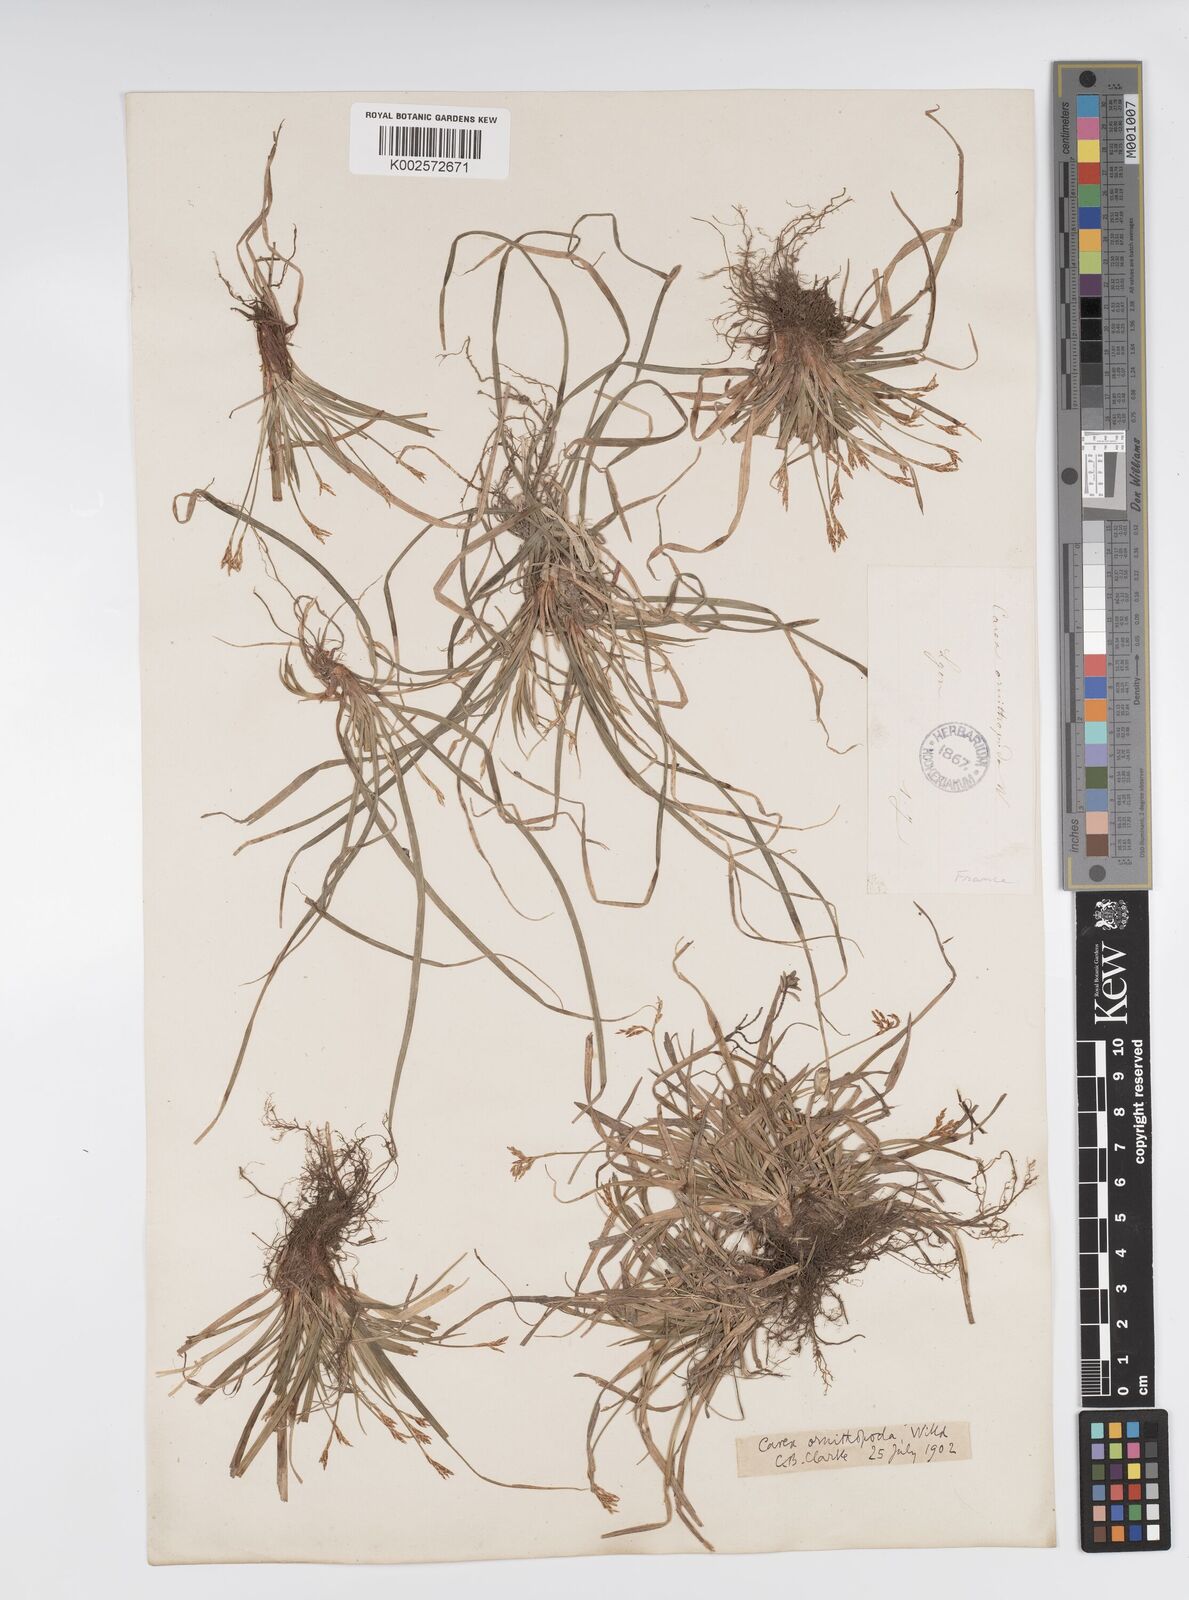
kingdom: Plantae
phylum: Tracheophyta
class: Liliopsida
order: Poales
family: Cyperaceae
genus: Carex
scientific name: Carex ornithopoda
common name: Bird's-foot sedge
